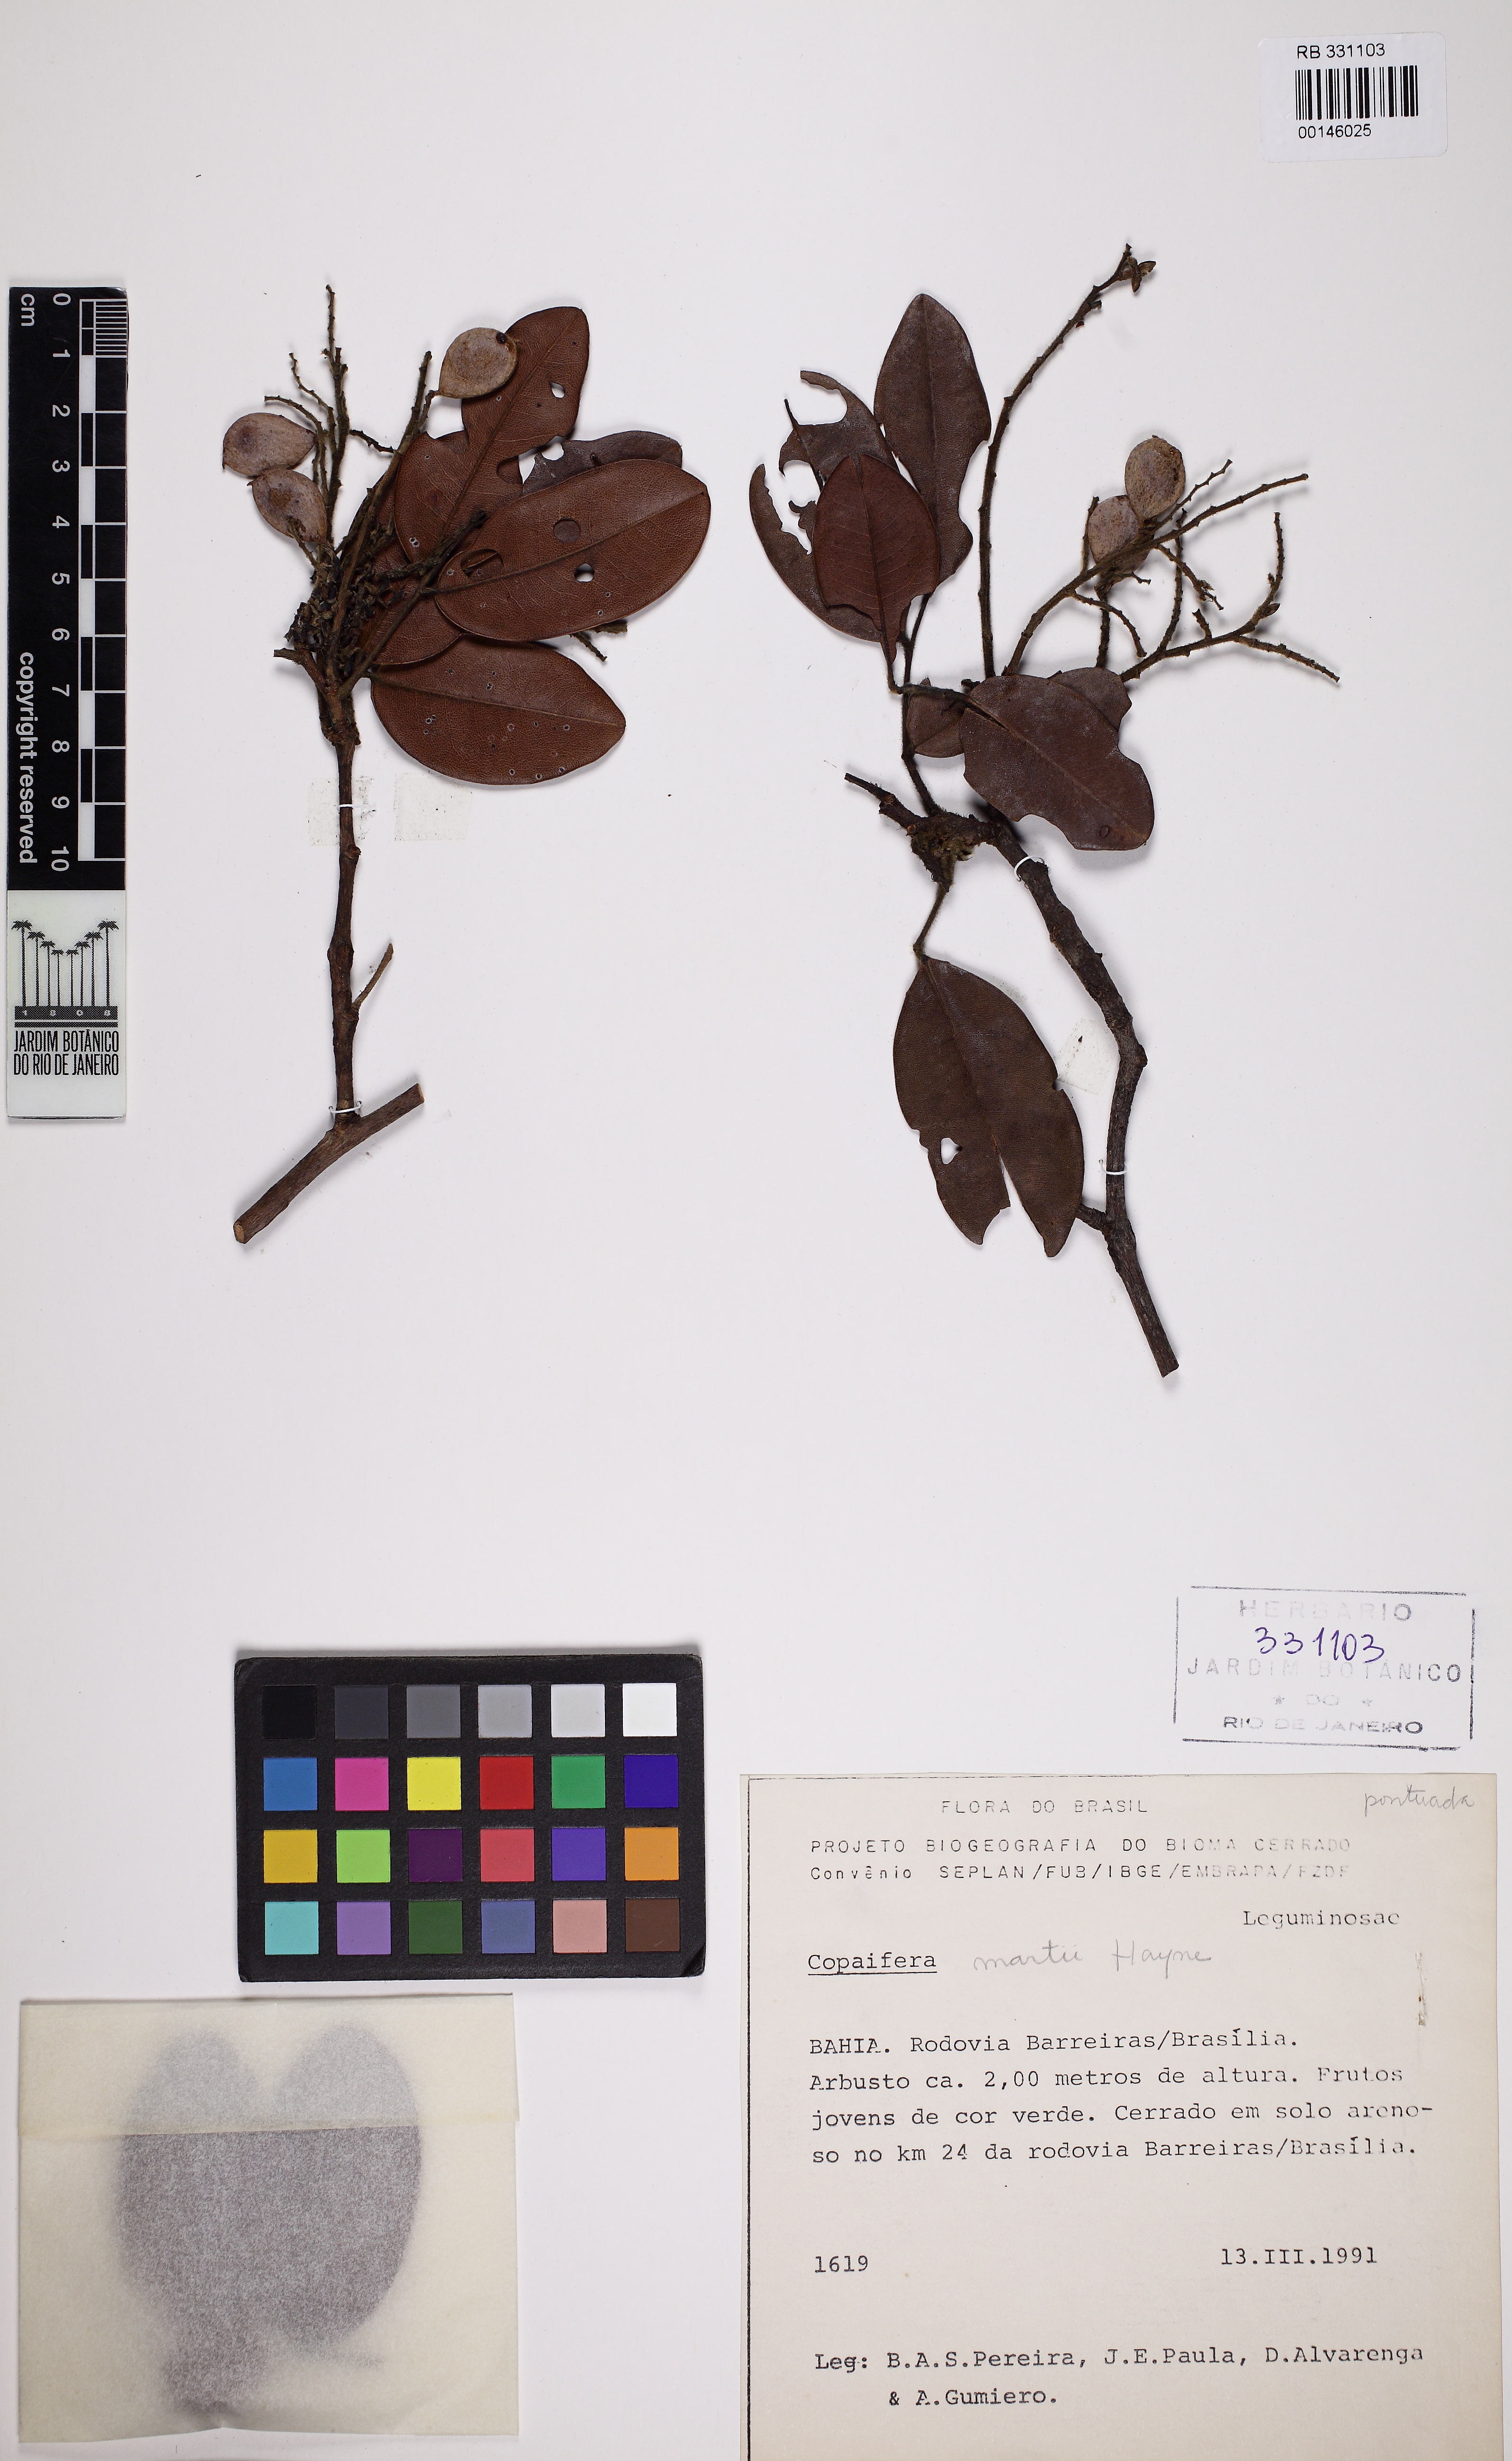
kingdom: Plantae
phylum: Tracheophyta
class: Magnoliopsida
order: Fabales
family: Fabaceae
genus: Copaifera
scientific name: Copaifera martii
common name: Copaiba
